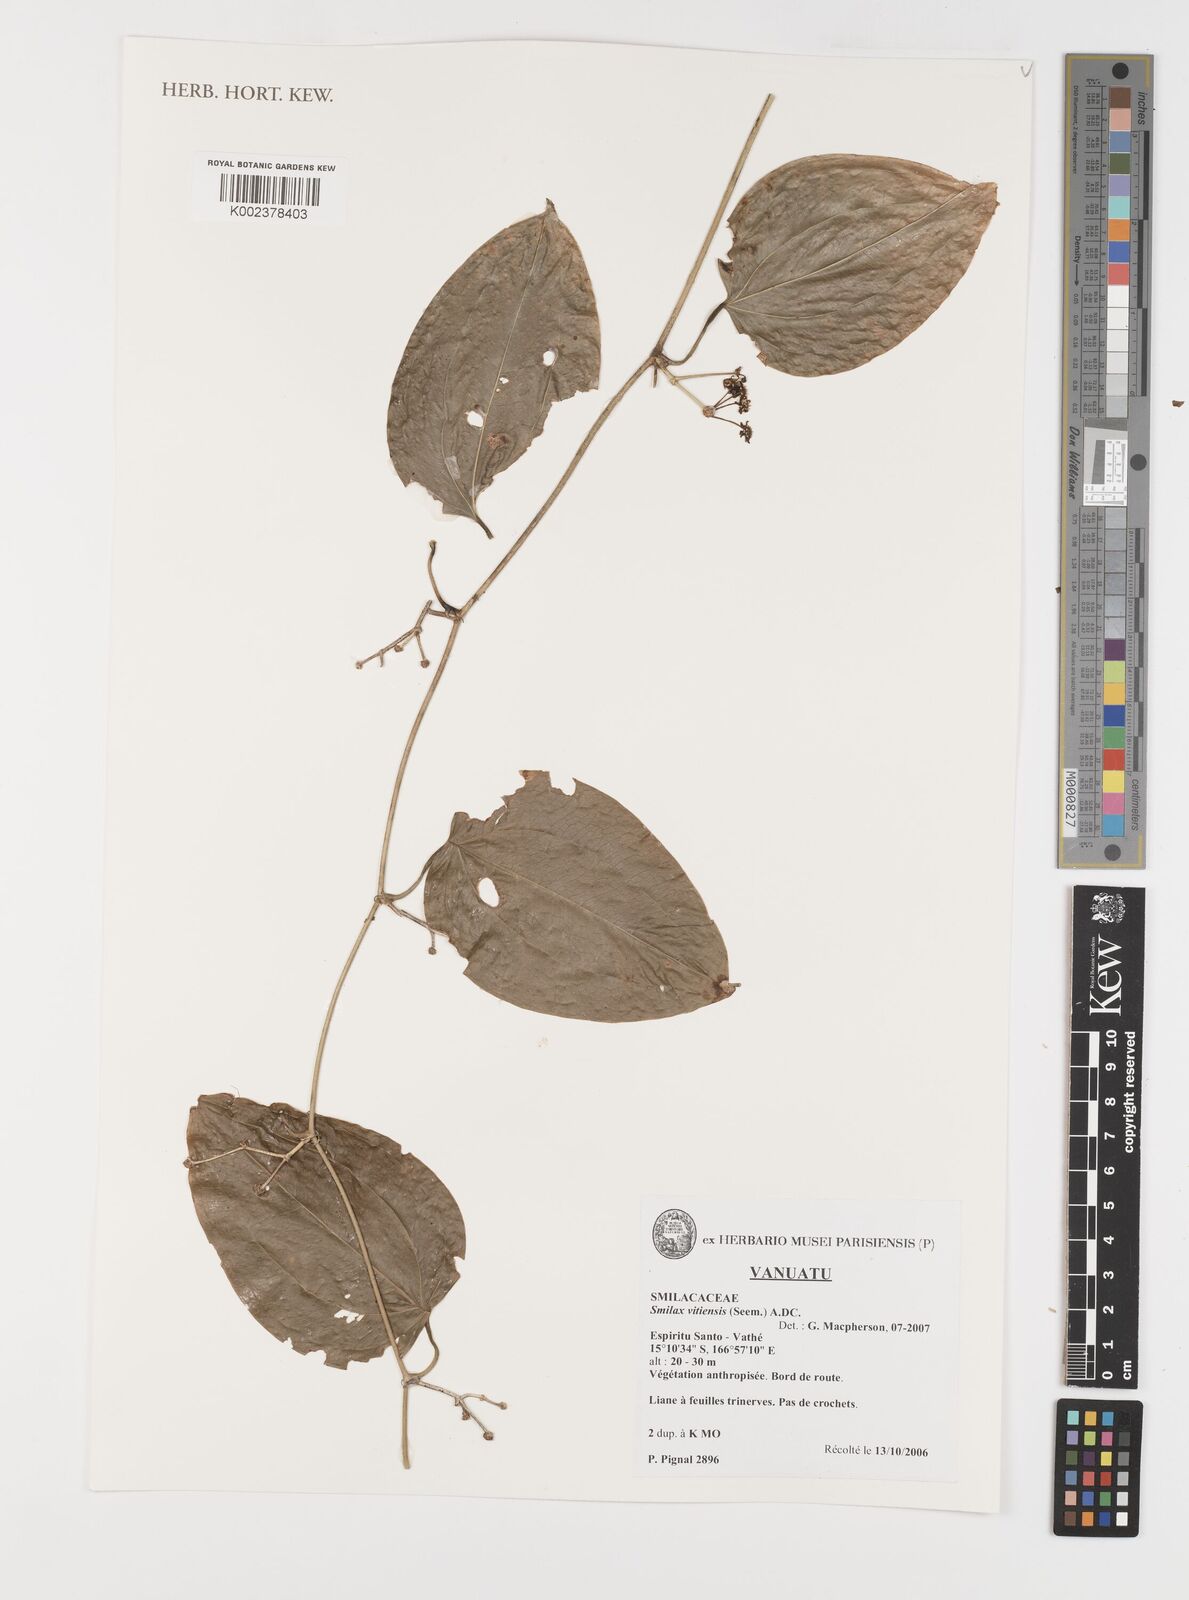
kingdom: Plantae
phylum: Tracheophyta
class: Liliopsida
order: Liliales
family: Smilacaceae
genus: Smilax
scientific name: Smilax vitiensis
